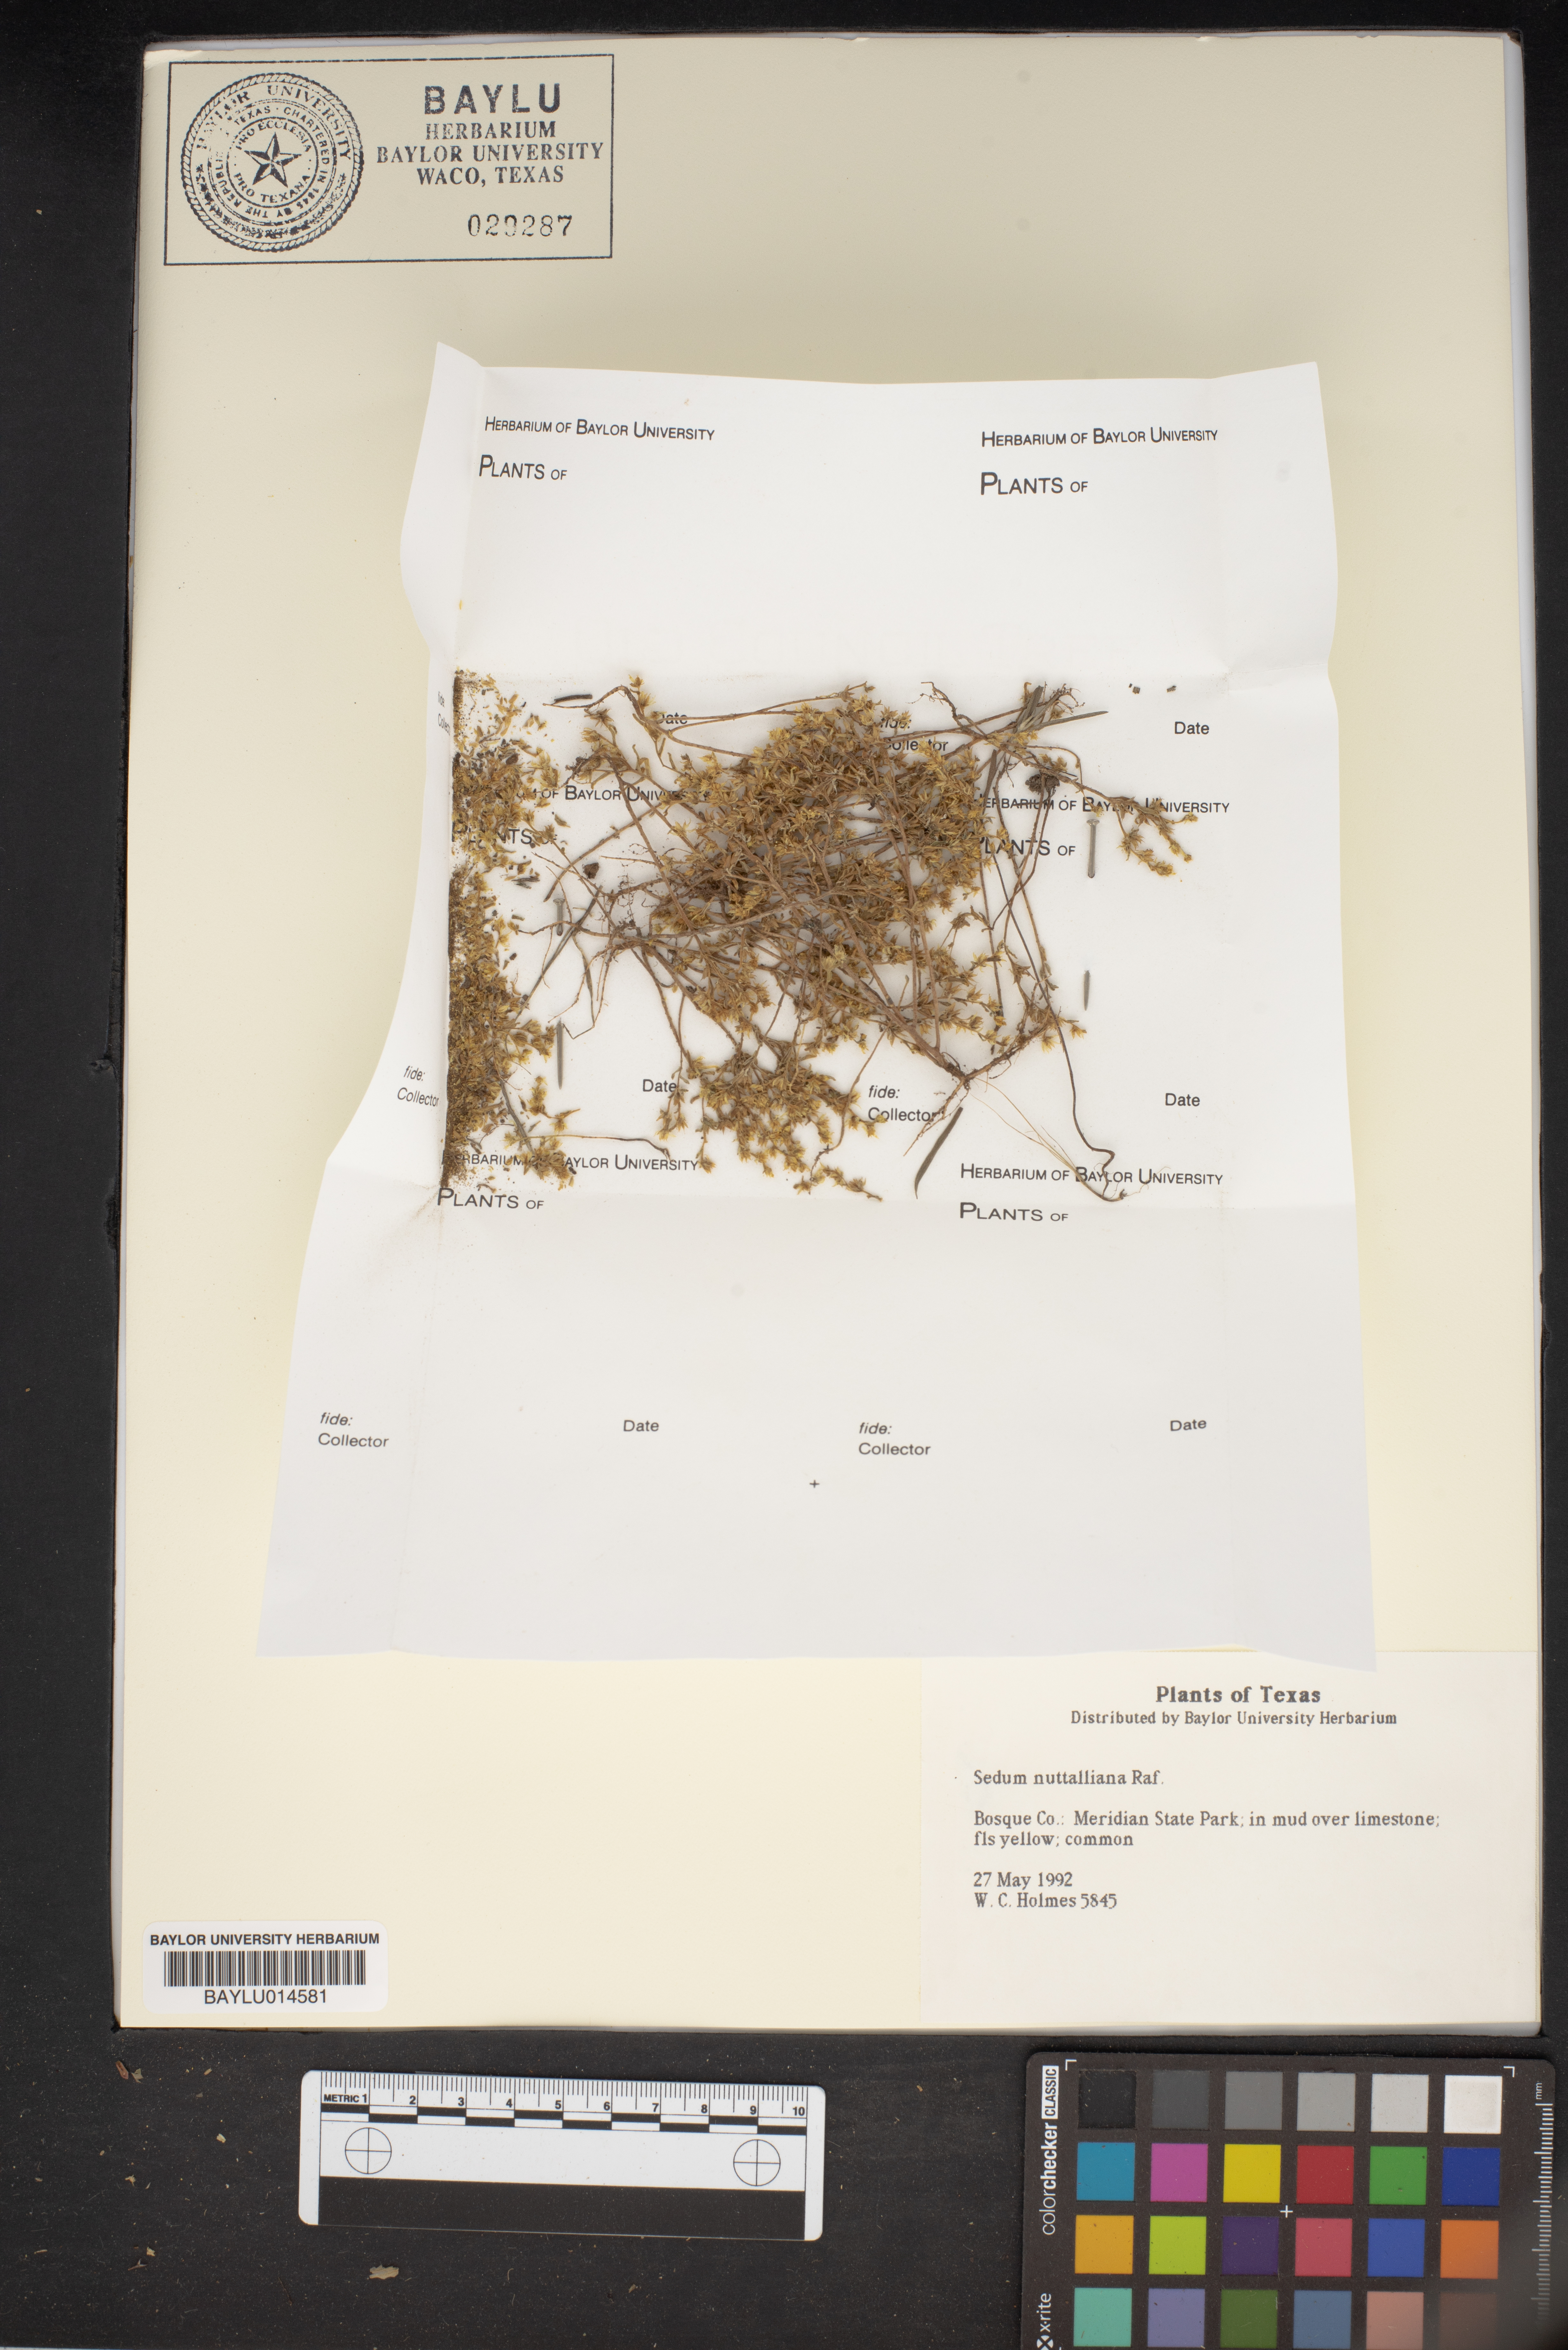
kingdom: Plantae
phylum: Tracheophyta
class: Magnoliopsida
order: Saxifragales
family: Crassulaceae
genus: Sedum
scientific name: Sedum nuttallii
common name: Yellow stonecrop
